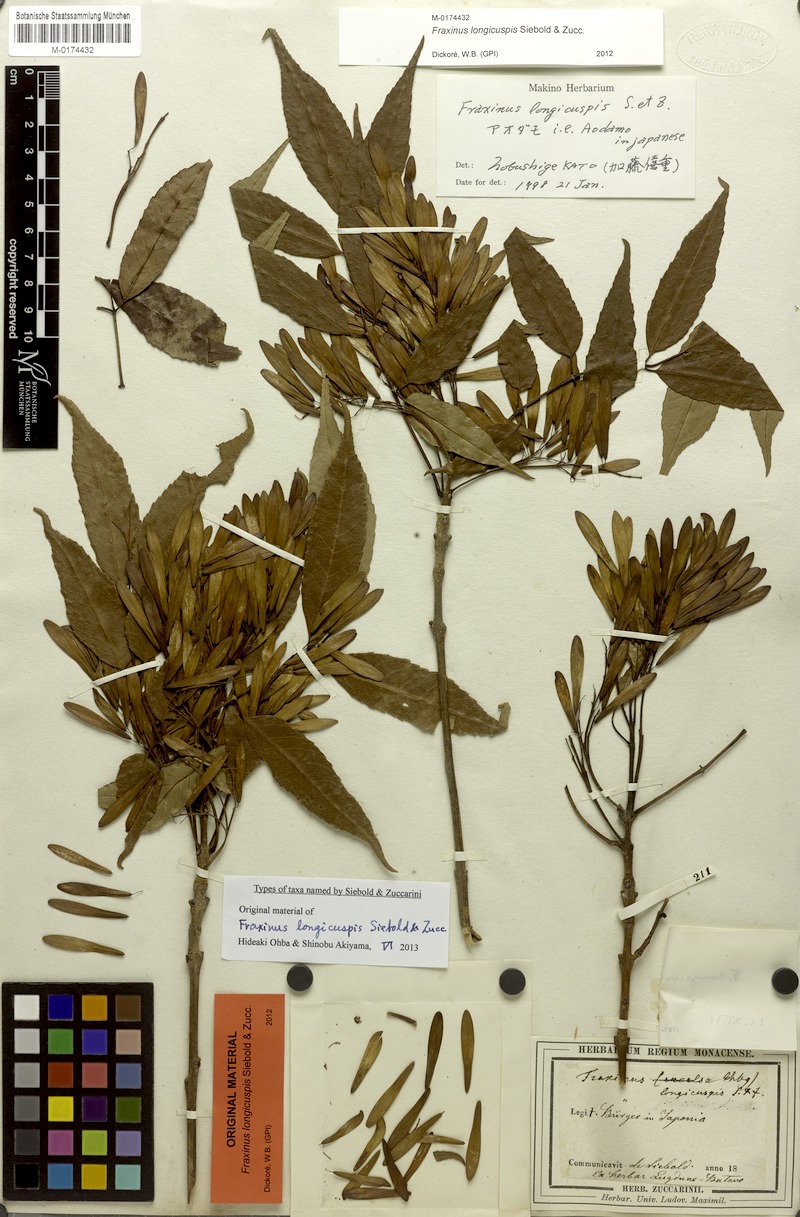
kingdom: Plantae
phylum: Tracheophyta
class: Magnoliopsida
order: Lamiales
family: Oleaceae
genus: Fraxinus
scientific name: Fraxinus longicuspis
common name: Japanese ash
